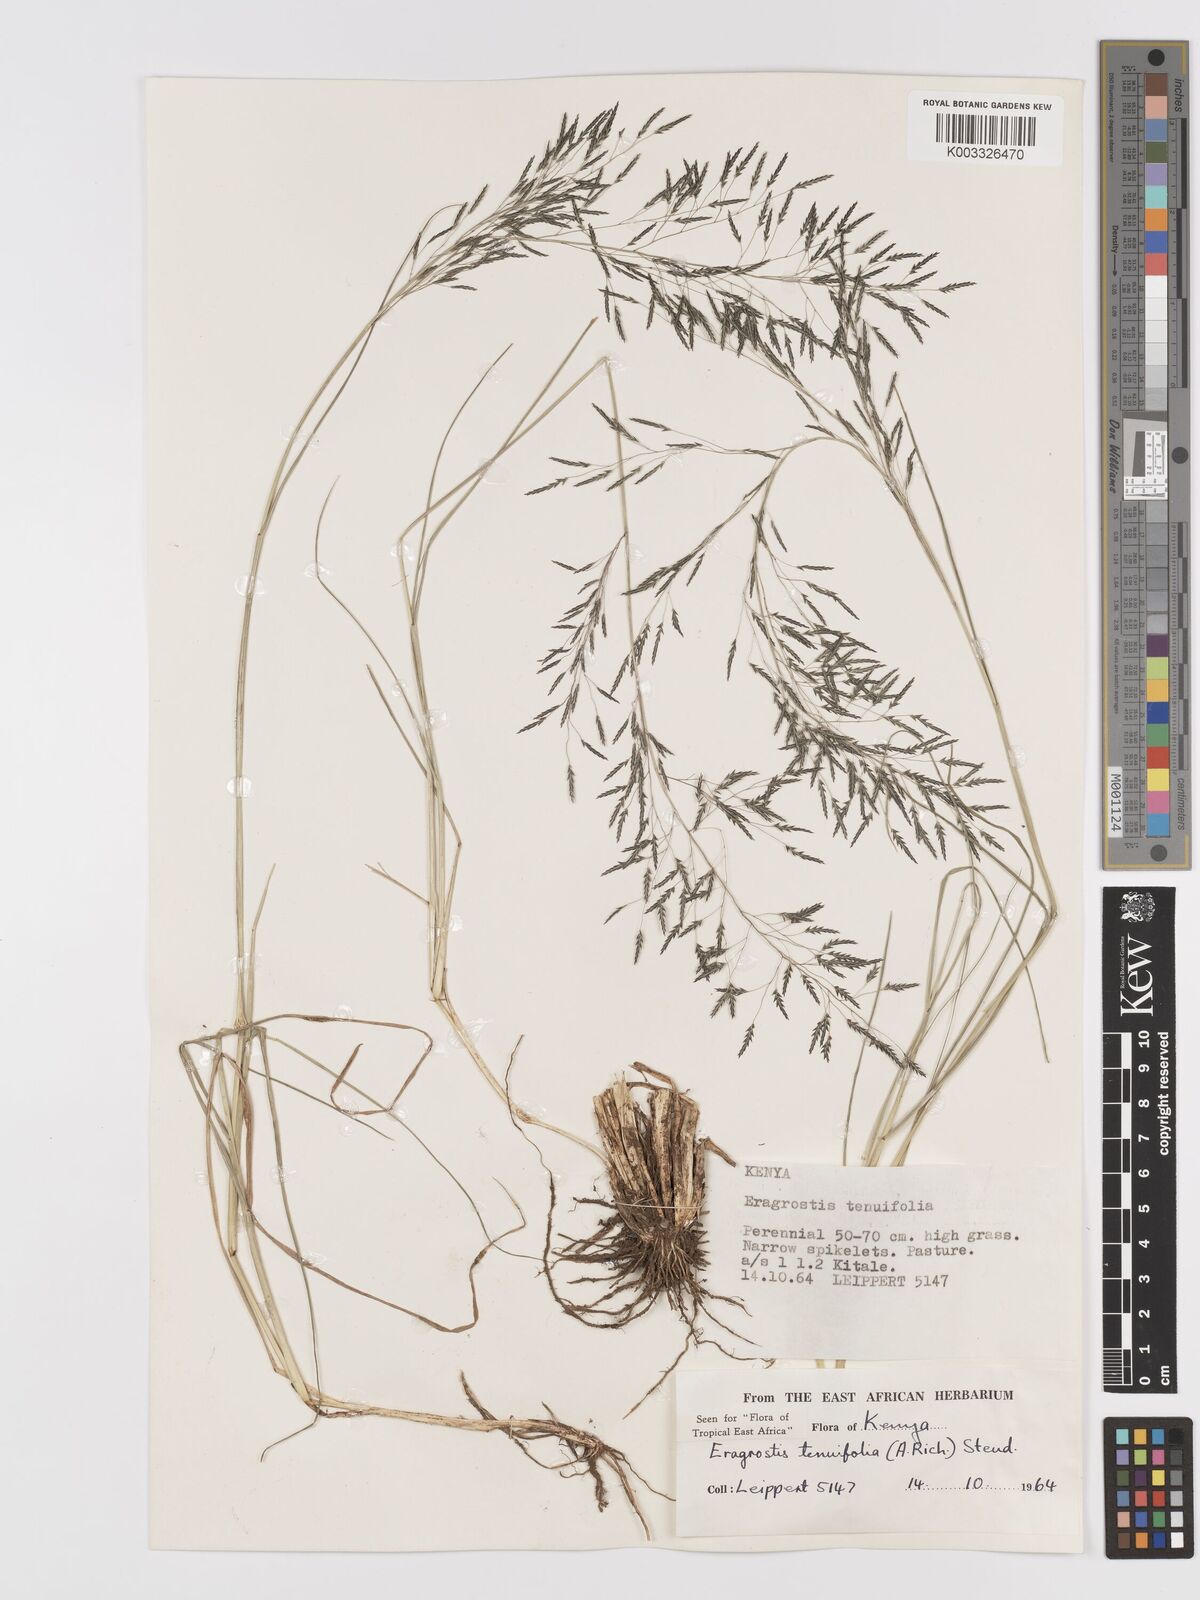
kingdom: Plantae
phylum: Tracheophyta
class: Liliopsida
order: Poales
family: Poaceae
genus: Eragrostis
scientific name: Eragrostis tenuifolia
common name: Elastic grass
